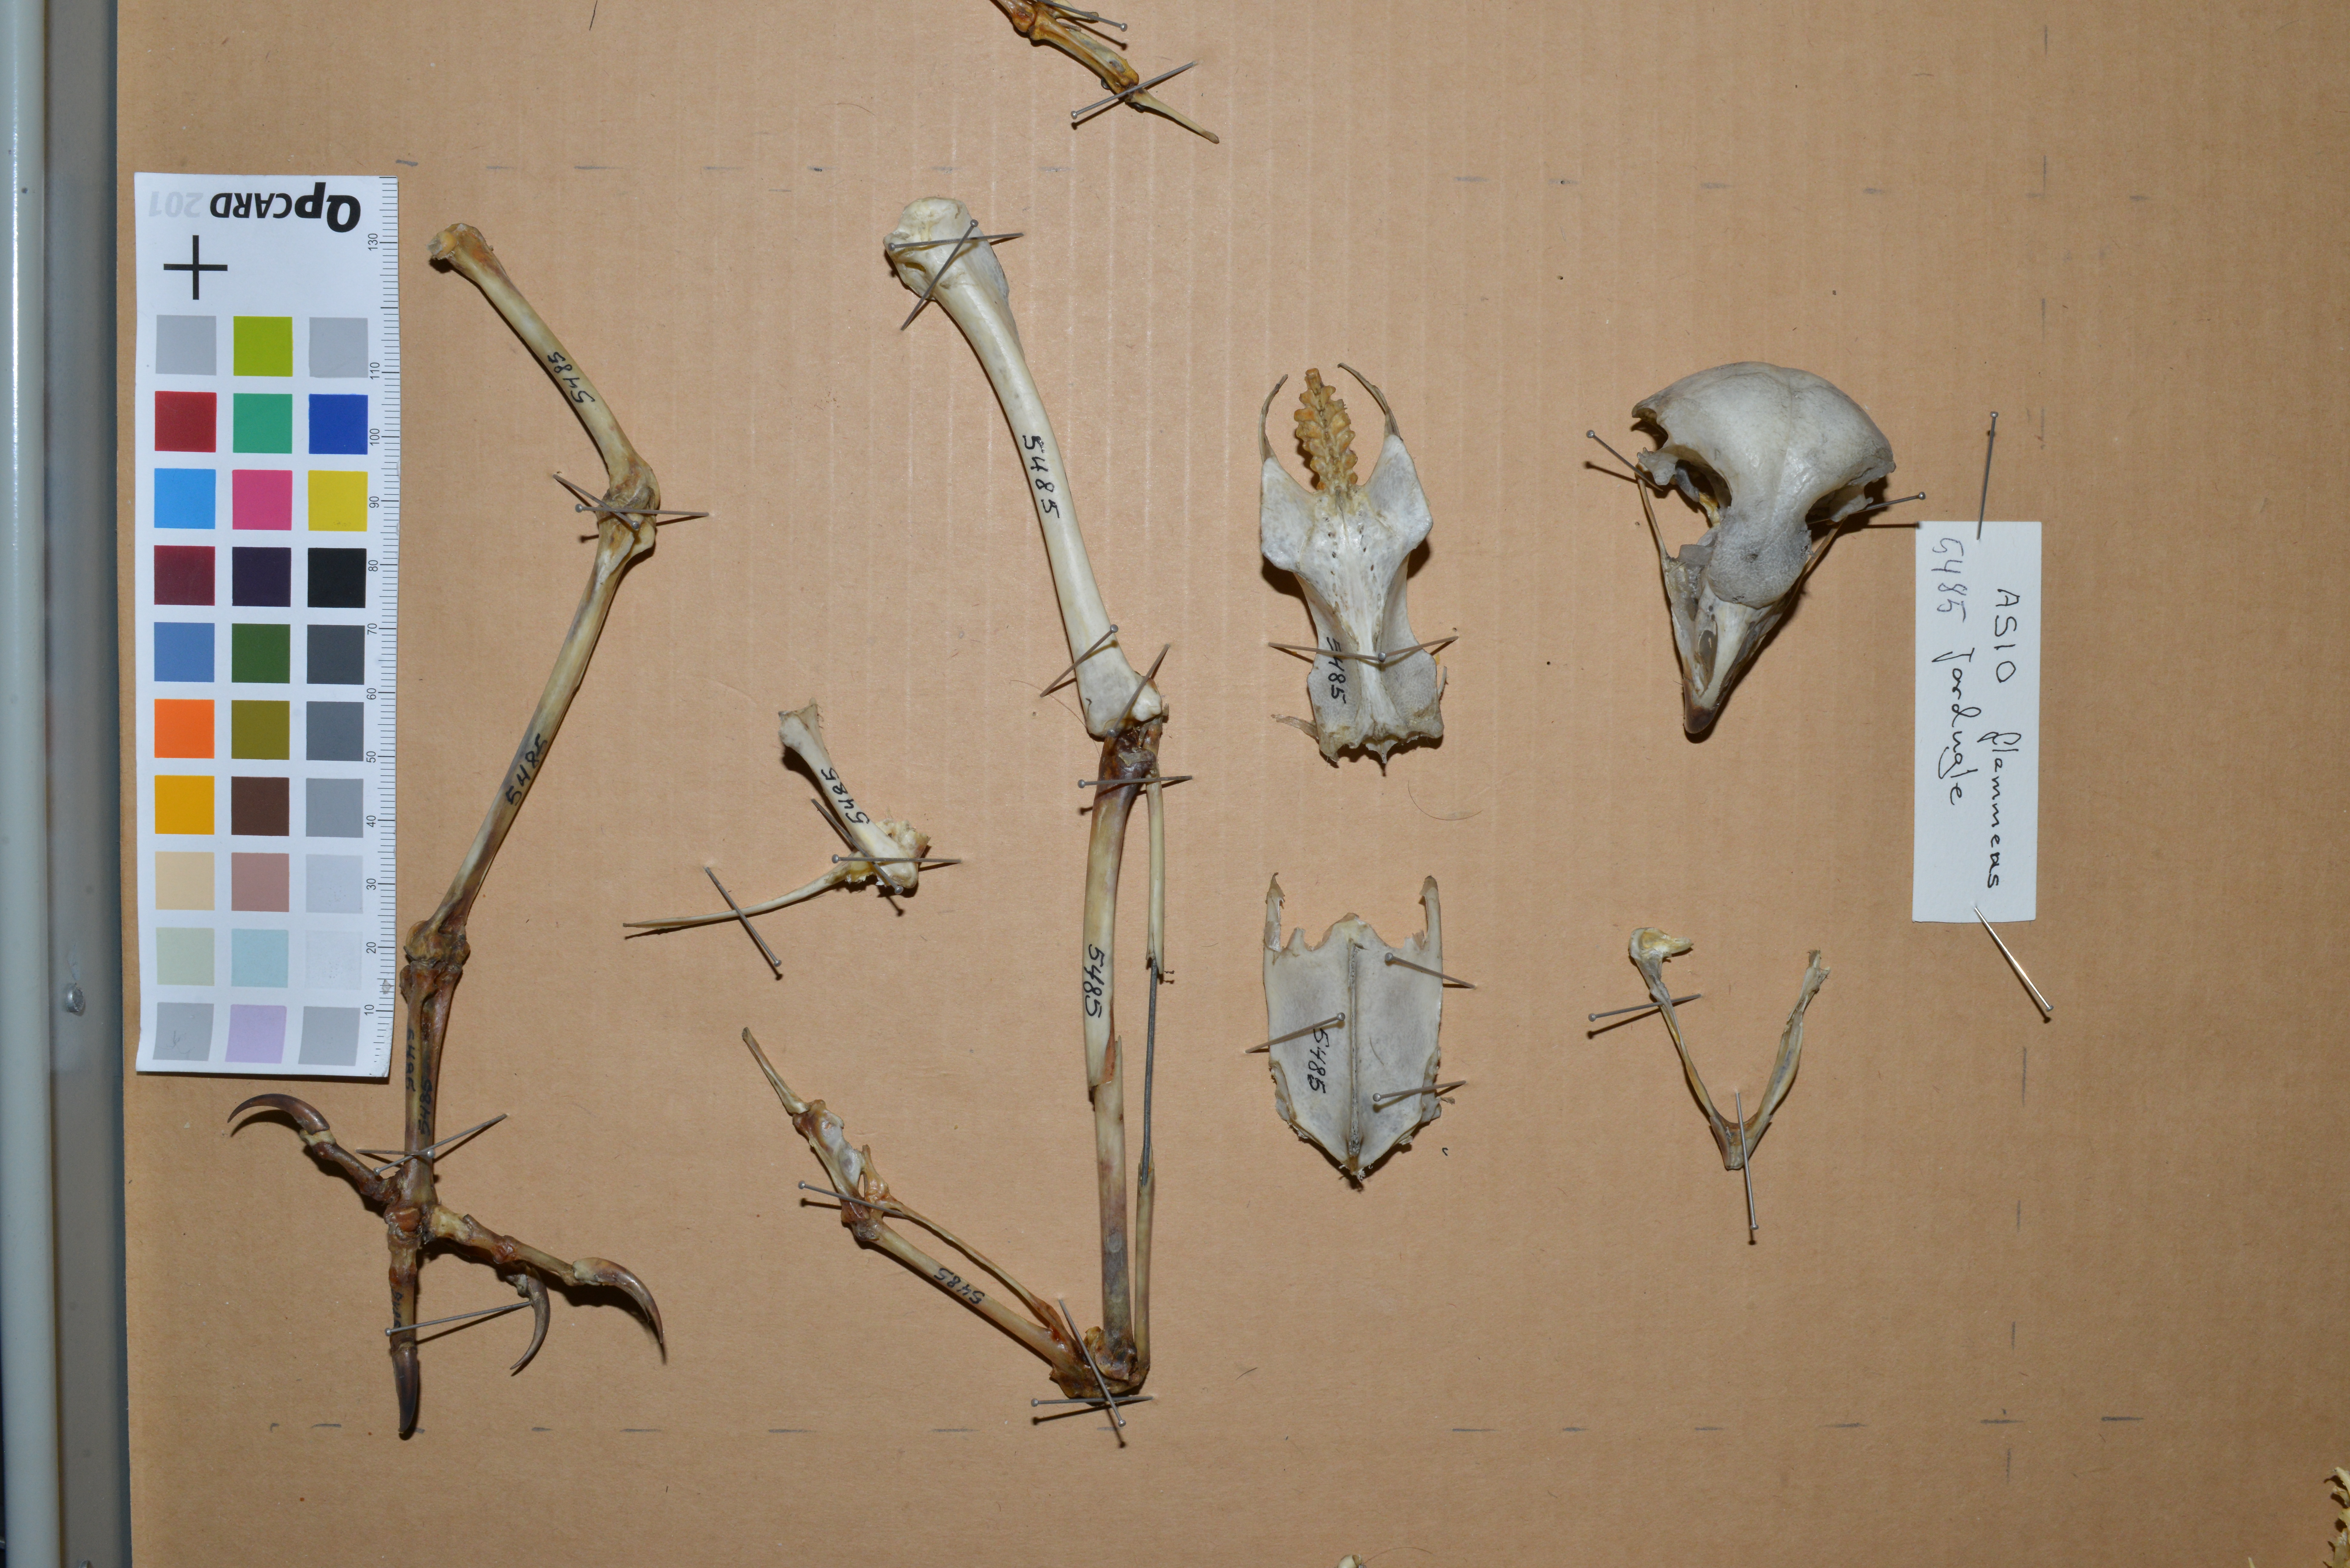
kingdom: Animalia
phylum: Chordata
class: Aves
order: Strigiformes
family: Strigidae
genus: Asio
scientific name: Asio flammeus
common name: Short-eared owl
